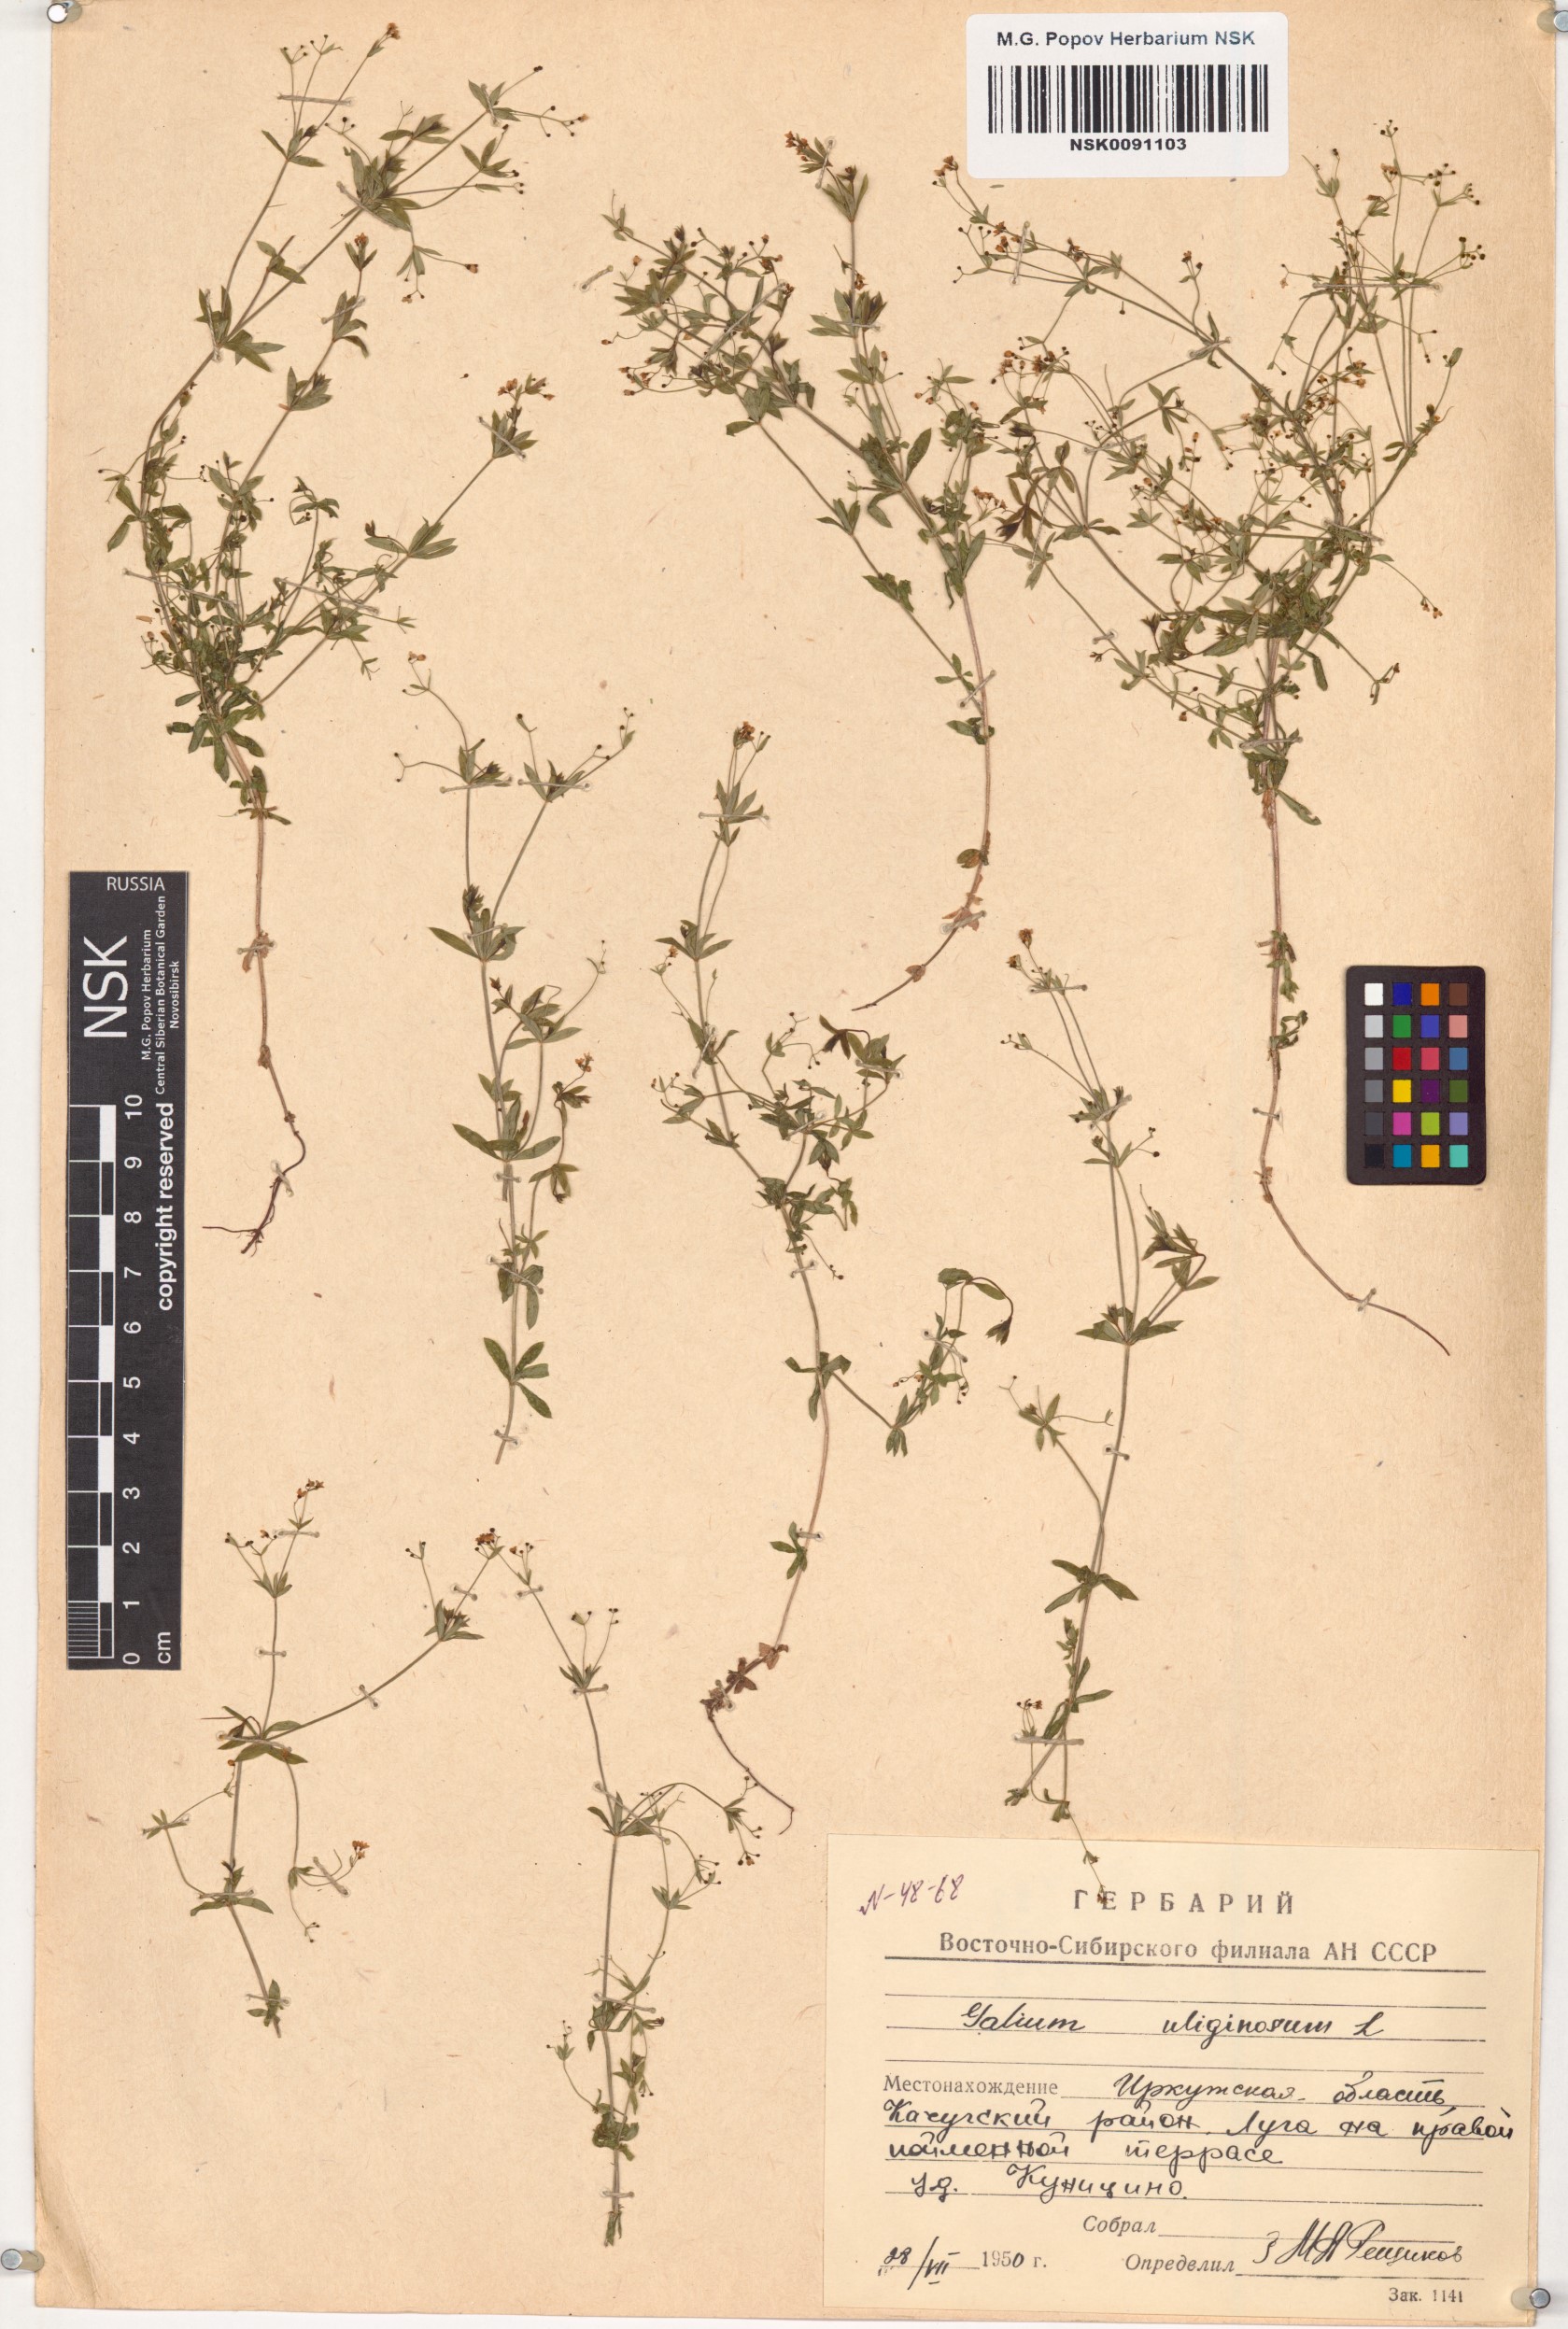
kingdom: Plantae
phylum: Tracheophyta
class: Magnoliopsida
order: Gentianales
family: Rubiaceae
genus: Galium
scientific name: Galium uliginosum
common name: Fen bedstraw
